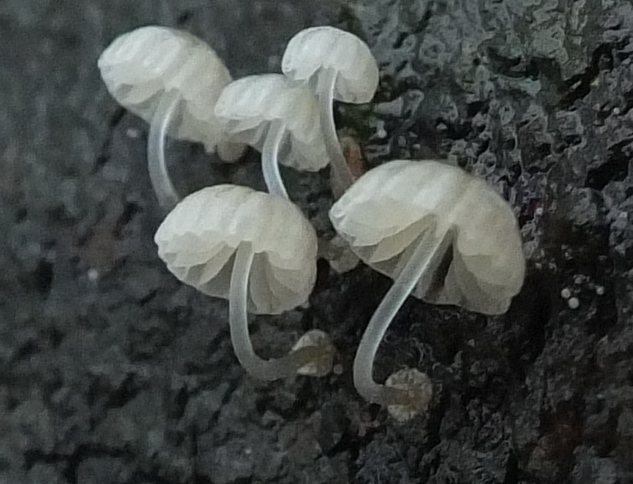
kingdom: Fungi
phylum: Basidiomycota
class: Agaricomycetes
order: Agaricales
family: Mycenaceae
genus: Mycena
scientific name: Mycena clavularis
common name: dunskivet huesvamp
